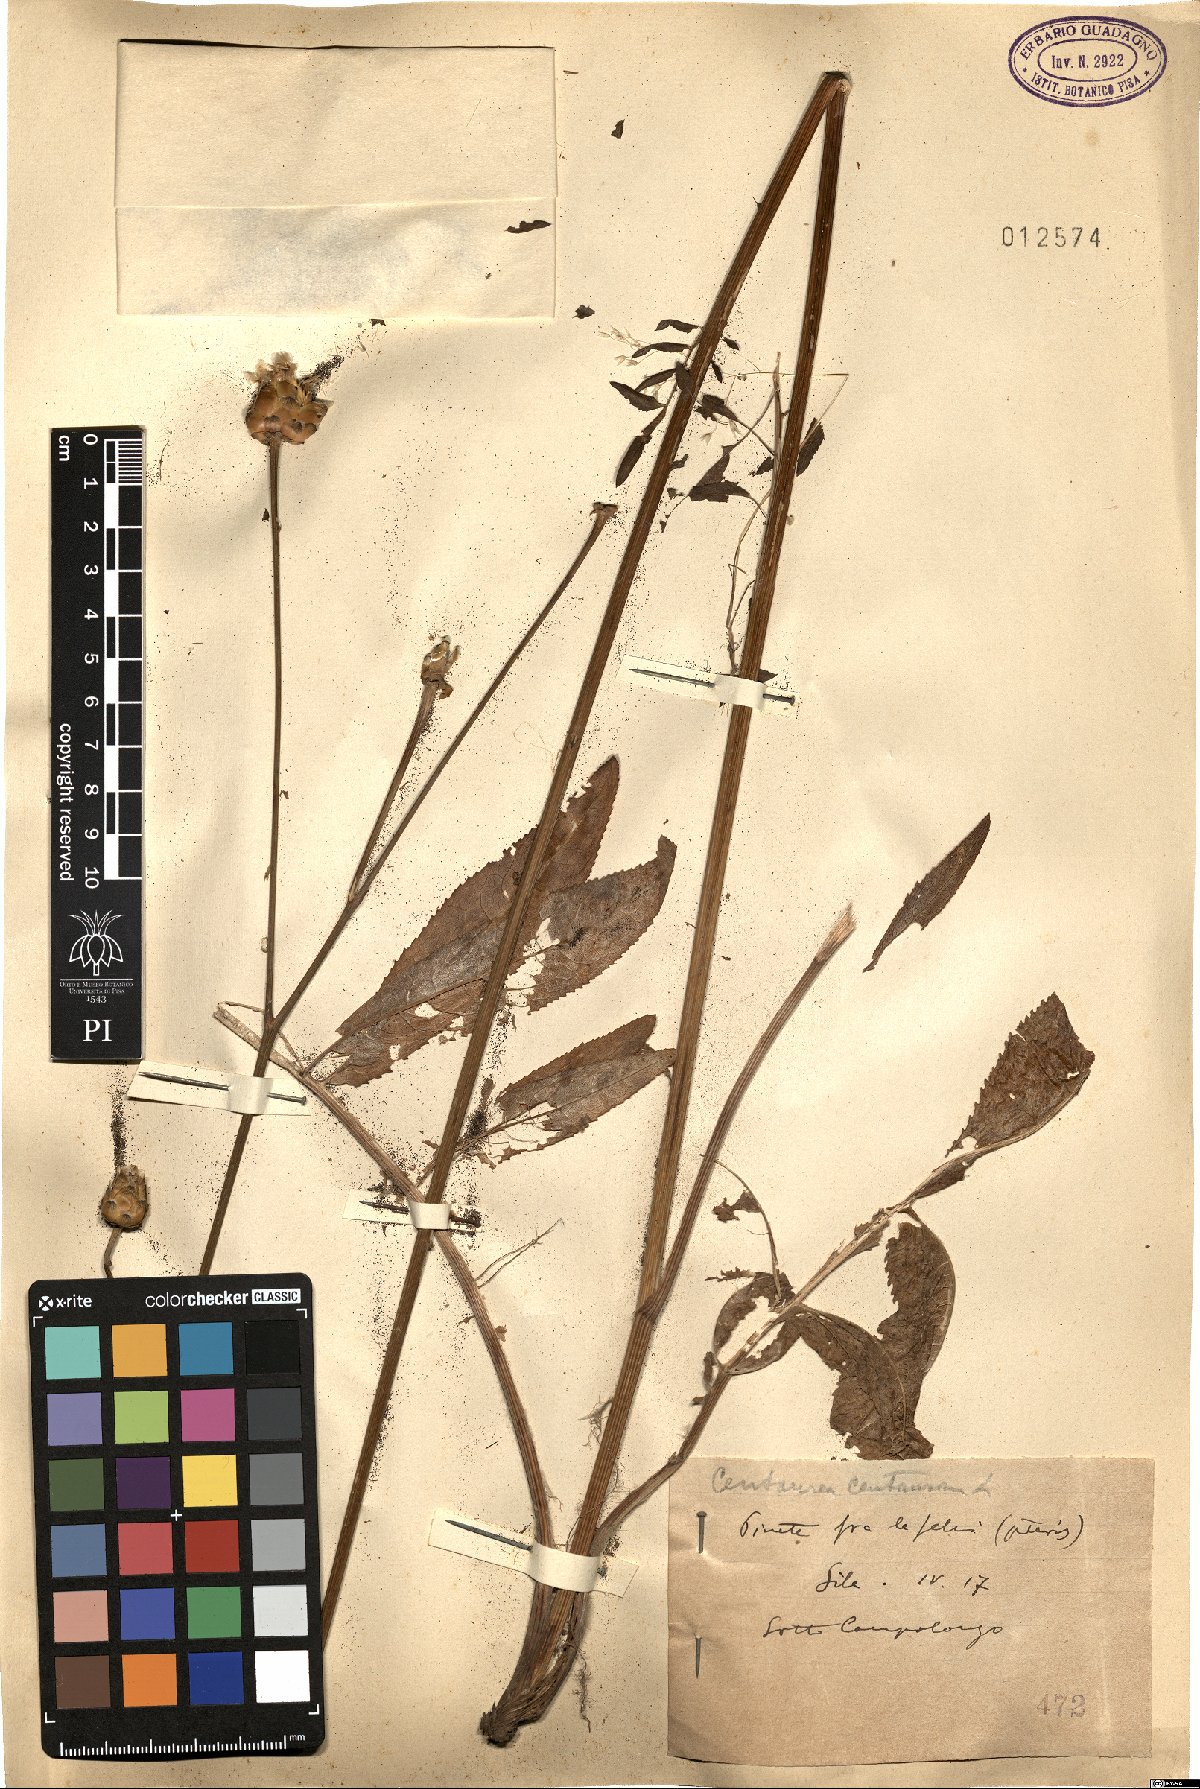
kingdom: Plantae
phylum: Tracheophyta
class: Magnoliopsida
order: Asterales
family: Asteraceae
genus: Rhaponticoides
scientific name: Rhaponticoides centaurium
